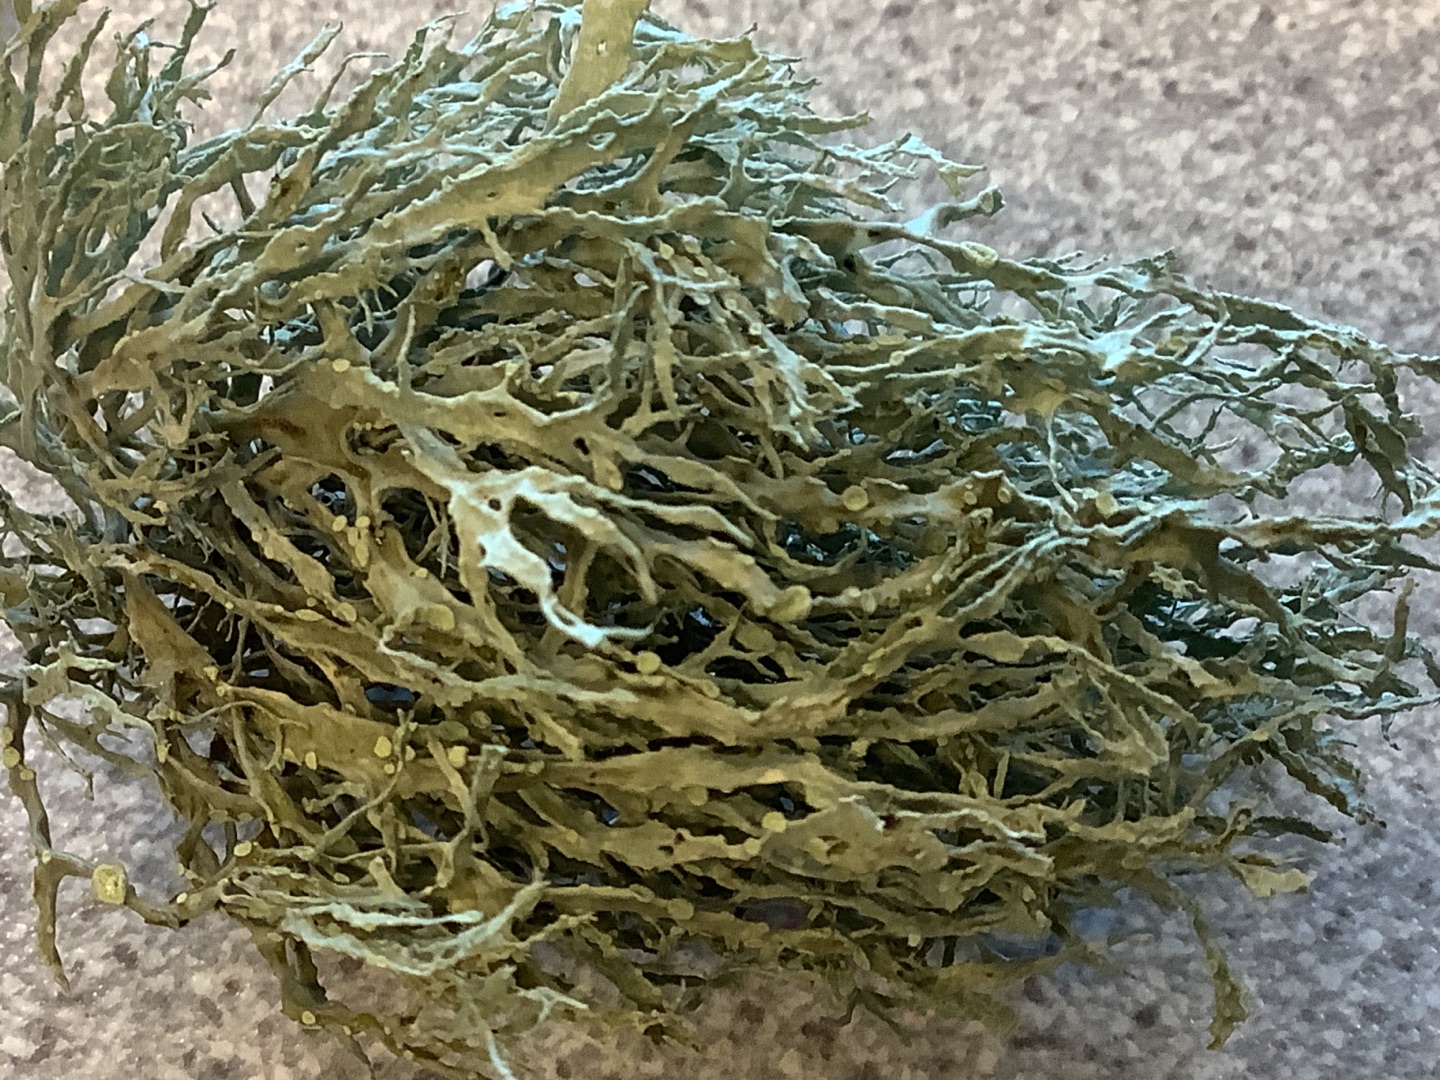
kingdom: Fungi
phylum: Ascomycota
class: Lecanoromycetes
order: Lecanorales
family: Ramalinaceae
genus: Ramalina
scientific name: Ramalina farinacea
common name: Melet grenlav
